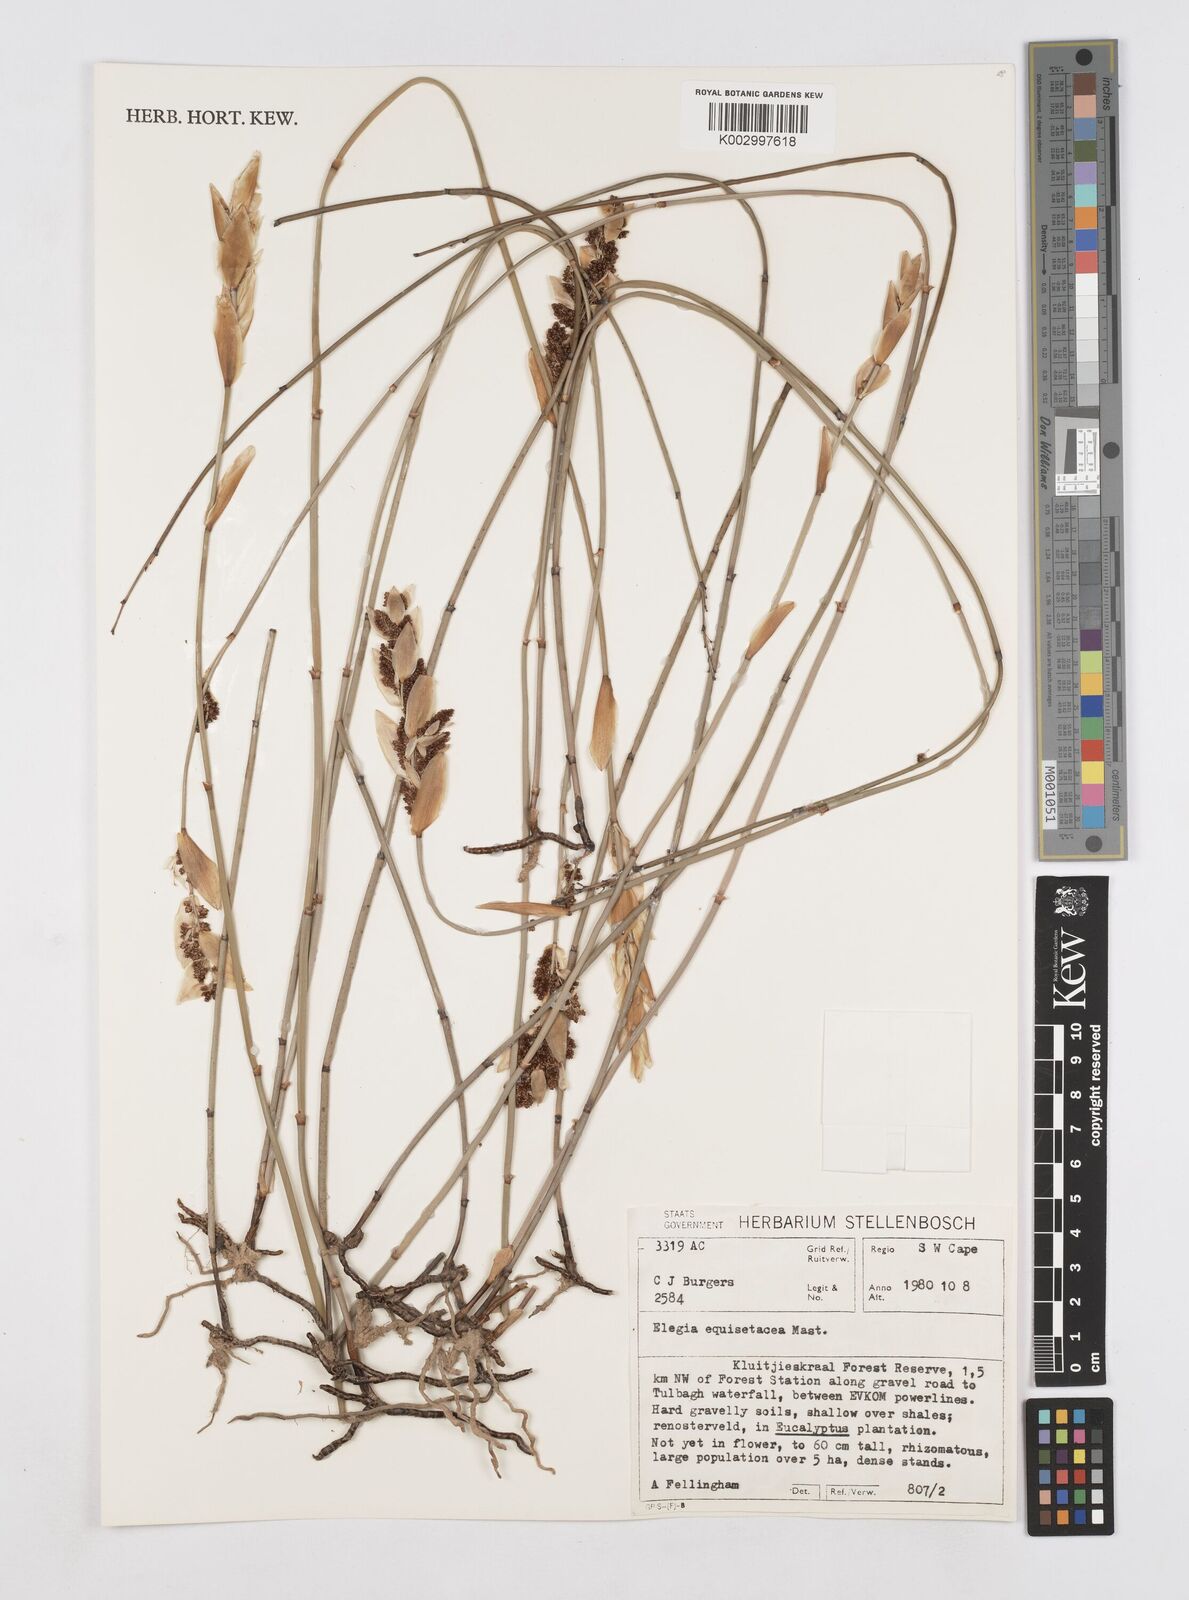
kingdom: Plantae
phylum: Tracheophyta
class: Liliopsida
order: Poales
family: Restionaceae
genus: Elegia
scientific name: Elegia equisetacea
